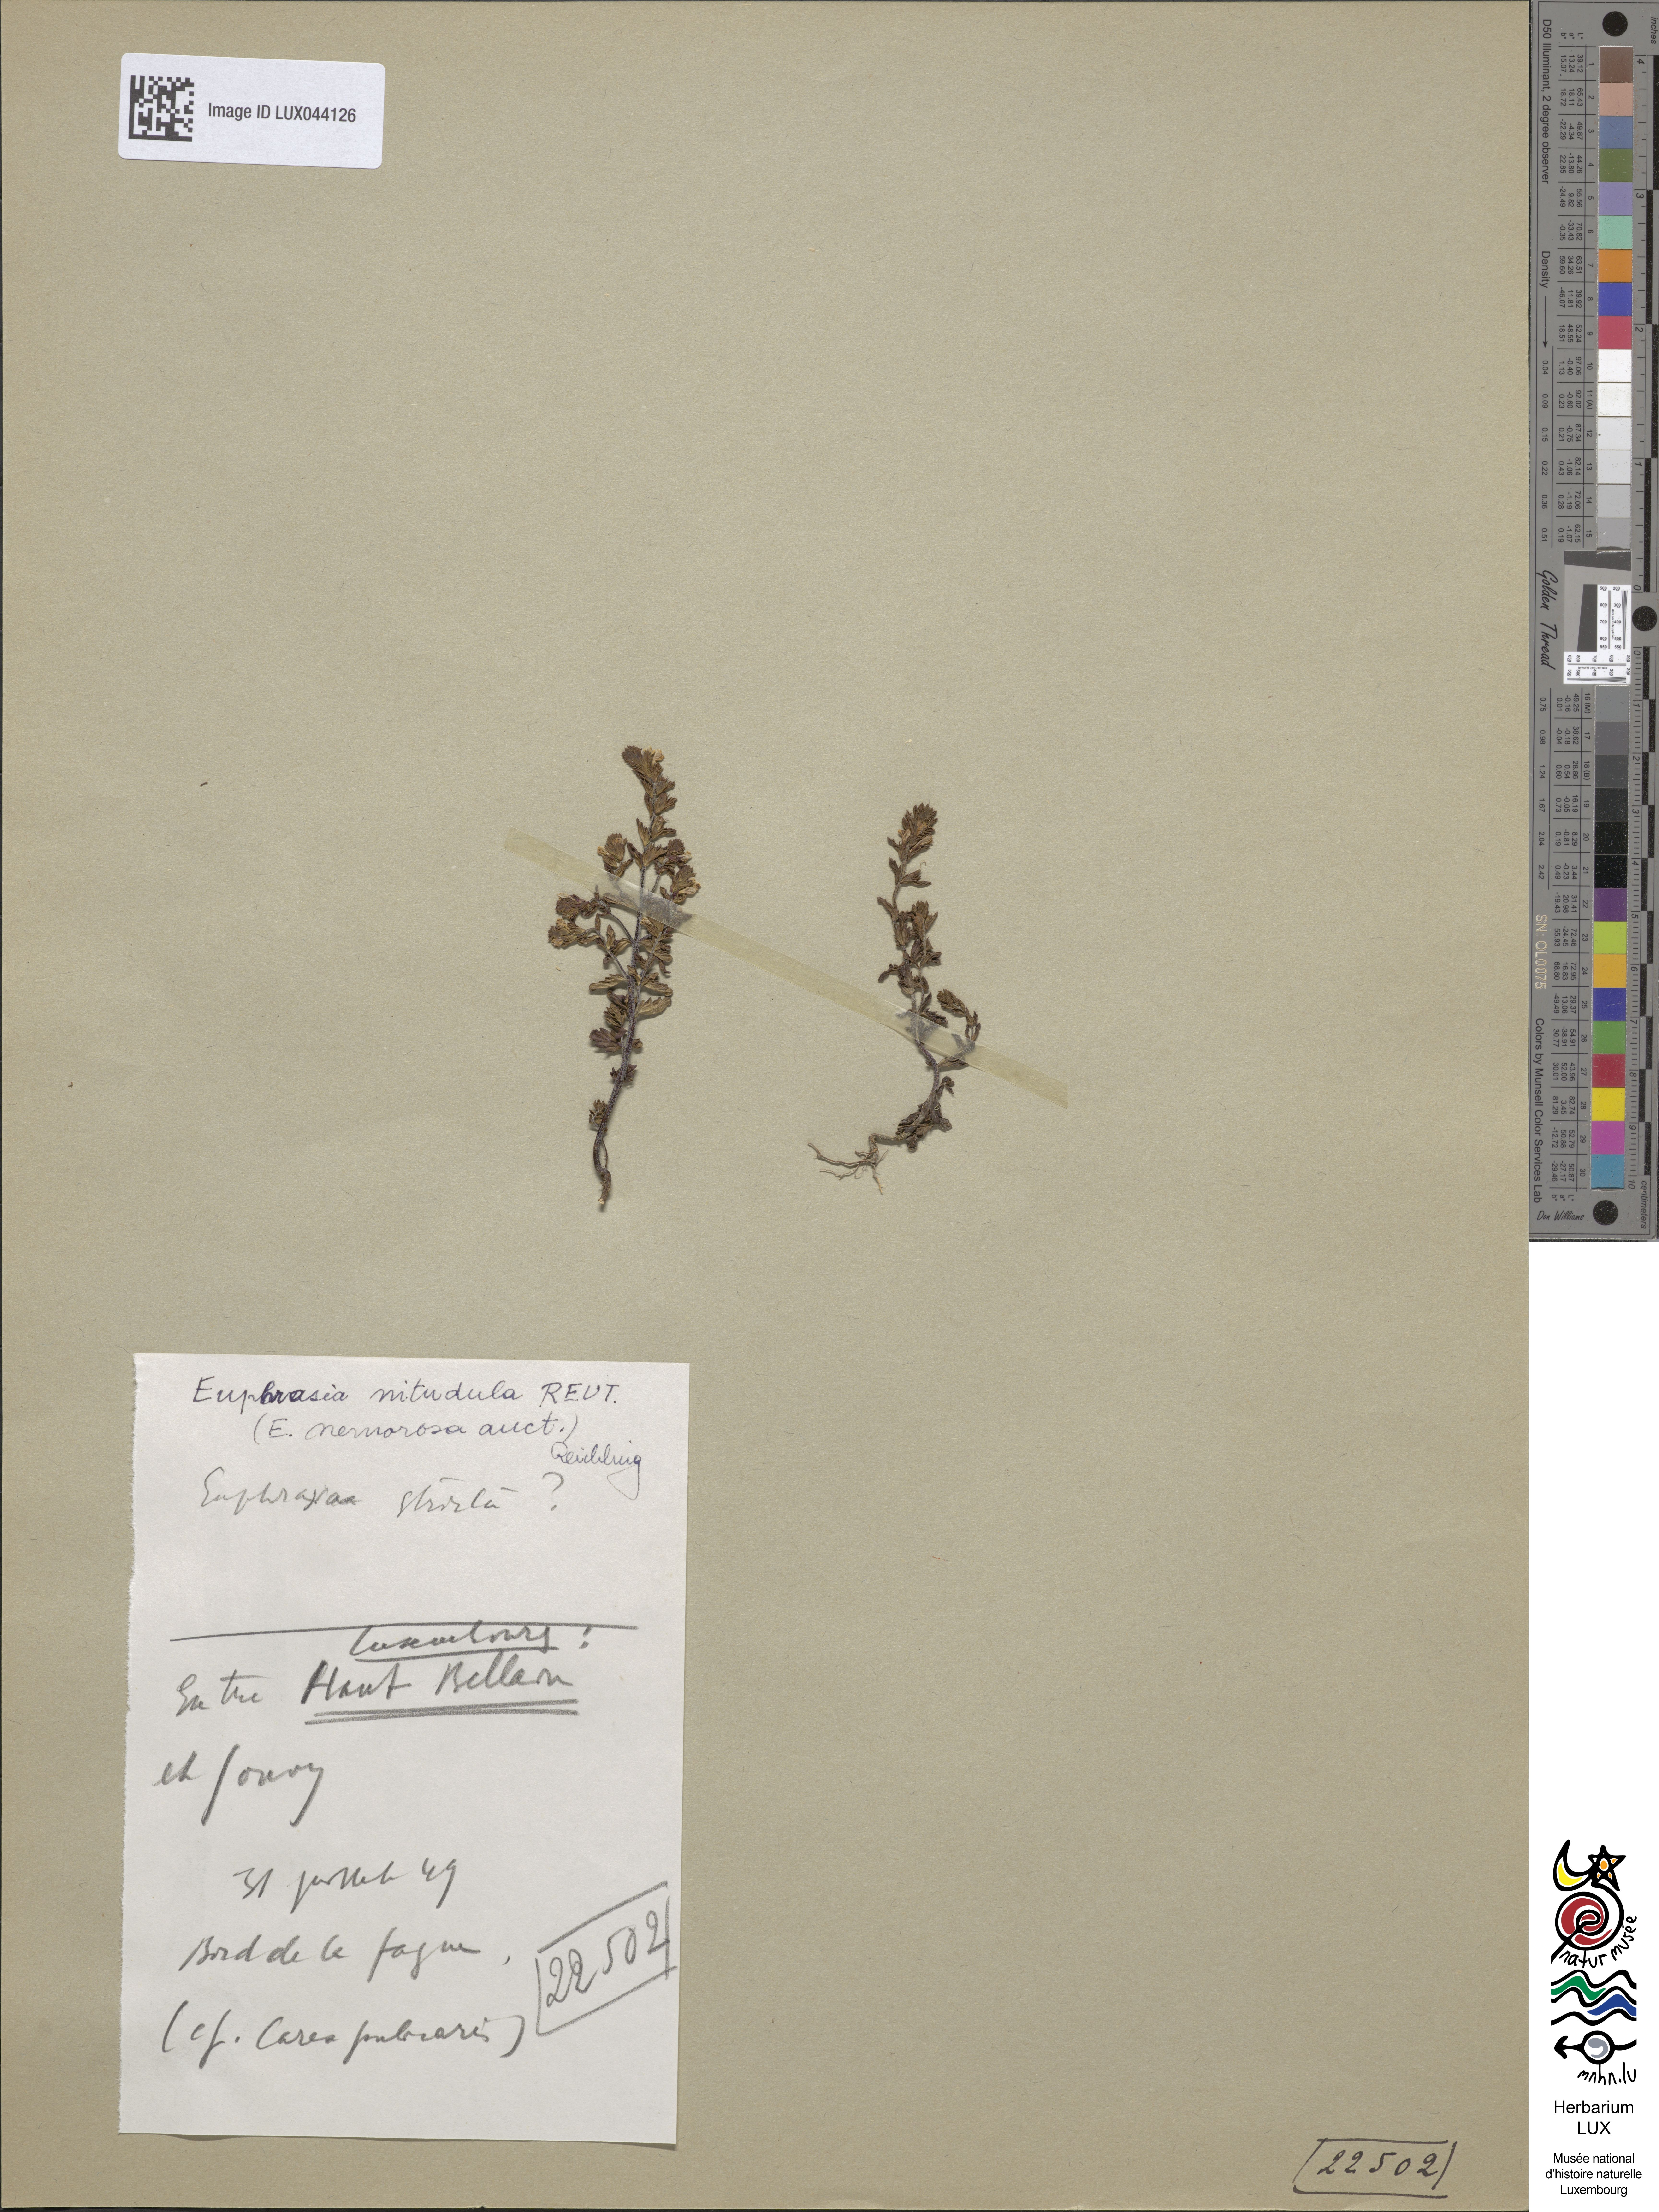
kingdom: Plantae
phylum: Tracheophyta
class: Magnoliopsida
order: Malpighiales
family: Euphorbiaceae
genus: Euphorbia
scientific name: Euphorbia stricta
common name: Upright spurge
